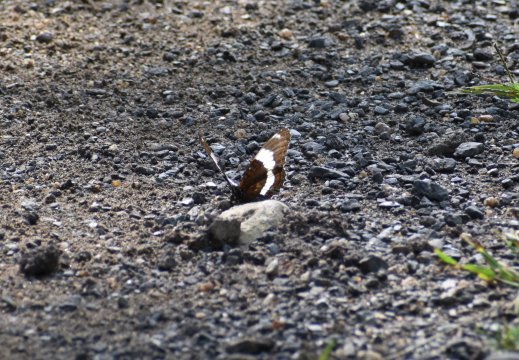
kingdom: Animalia
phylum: Arthropoda
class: Insecta
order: Lepidoptera
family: Nymphalidae
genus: Limenitis
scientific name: Limenitis arthemis
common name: Red-spotted Admiral
